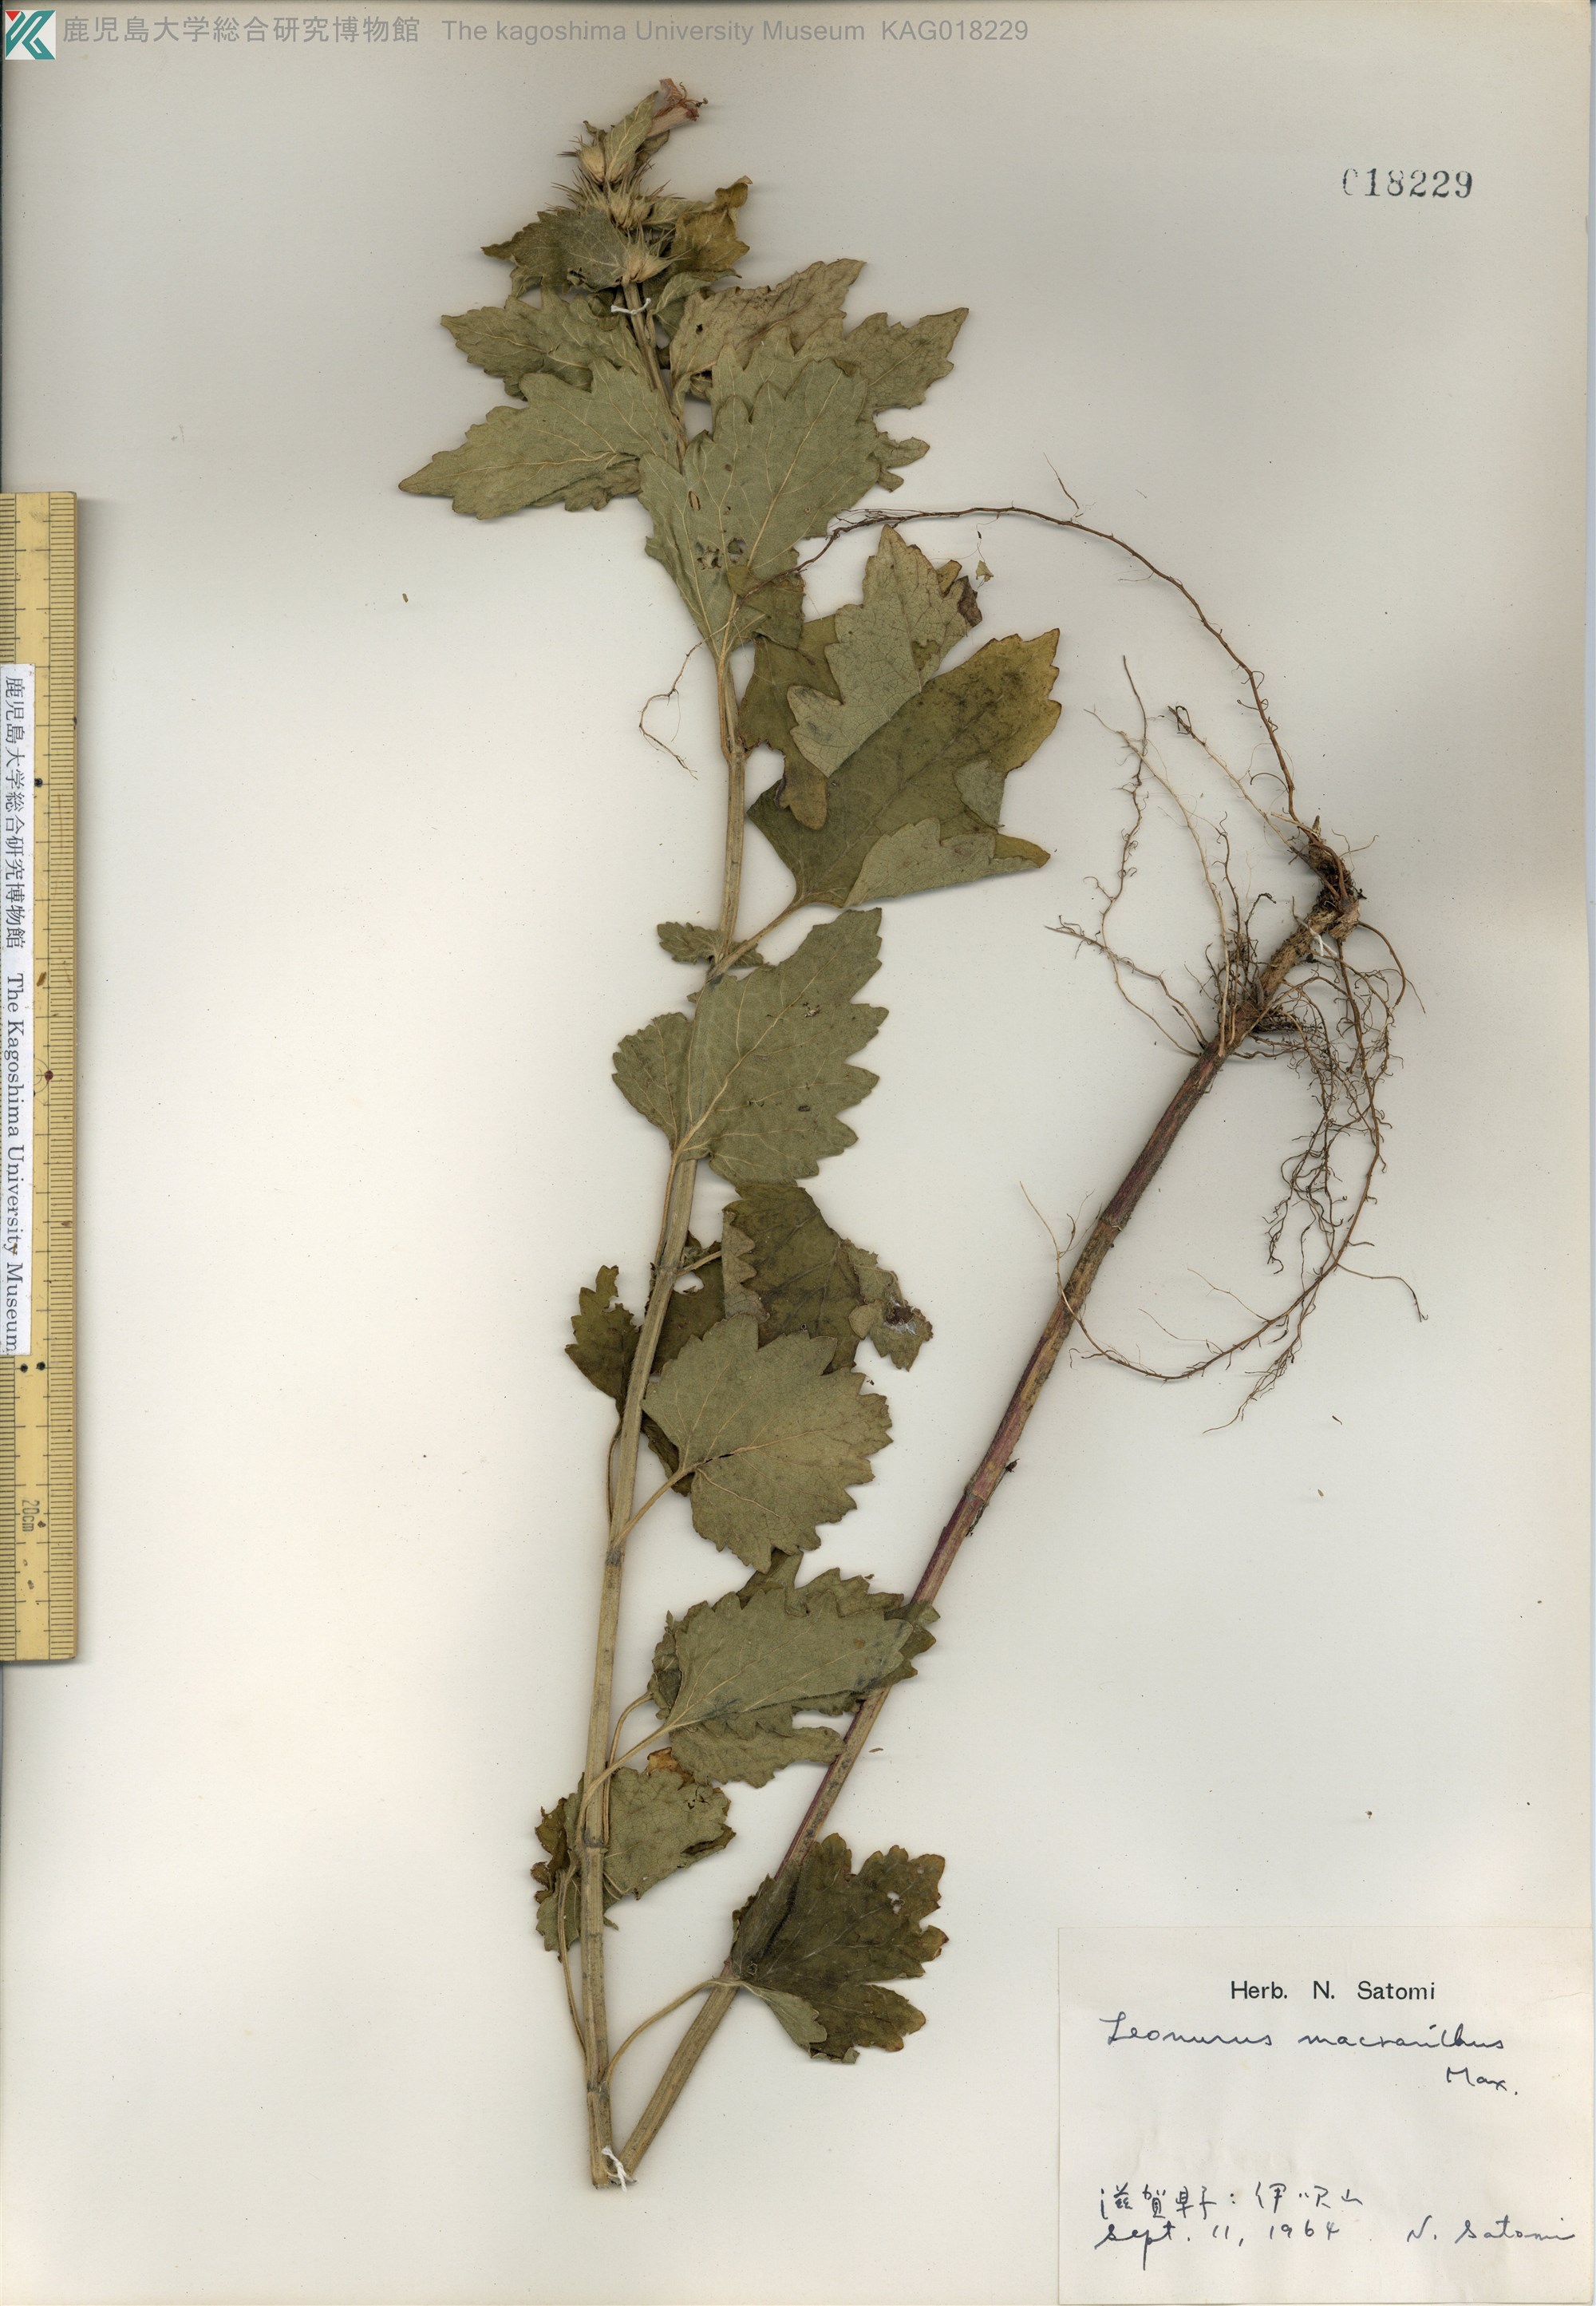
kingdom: Plantae
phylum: Tracheophyta
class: Magnoliopsida
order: Lamiales
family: Lamiaceae
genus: Leonurus
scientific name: Leonurus macranthus
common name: キセワタ
